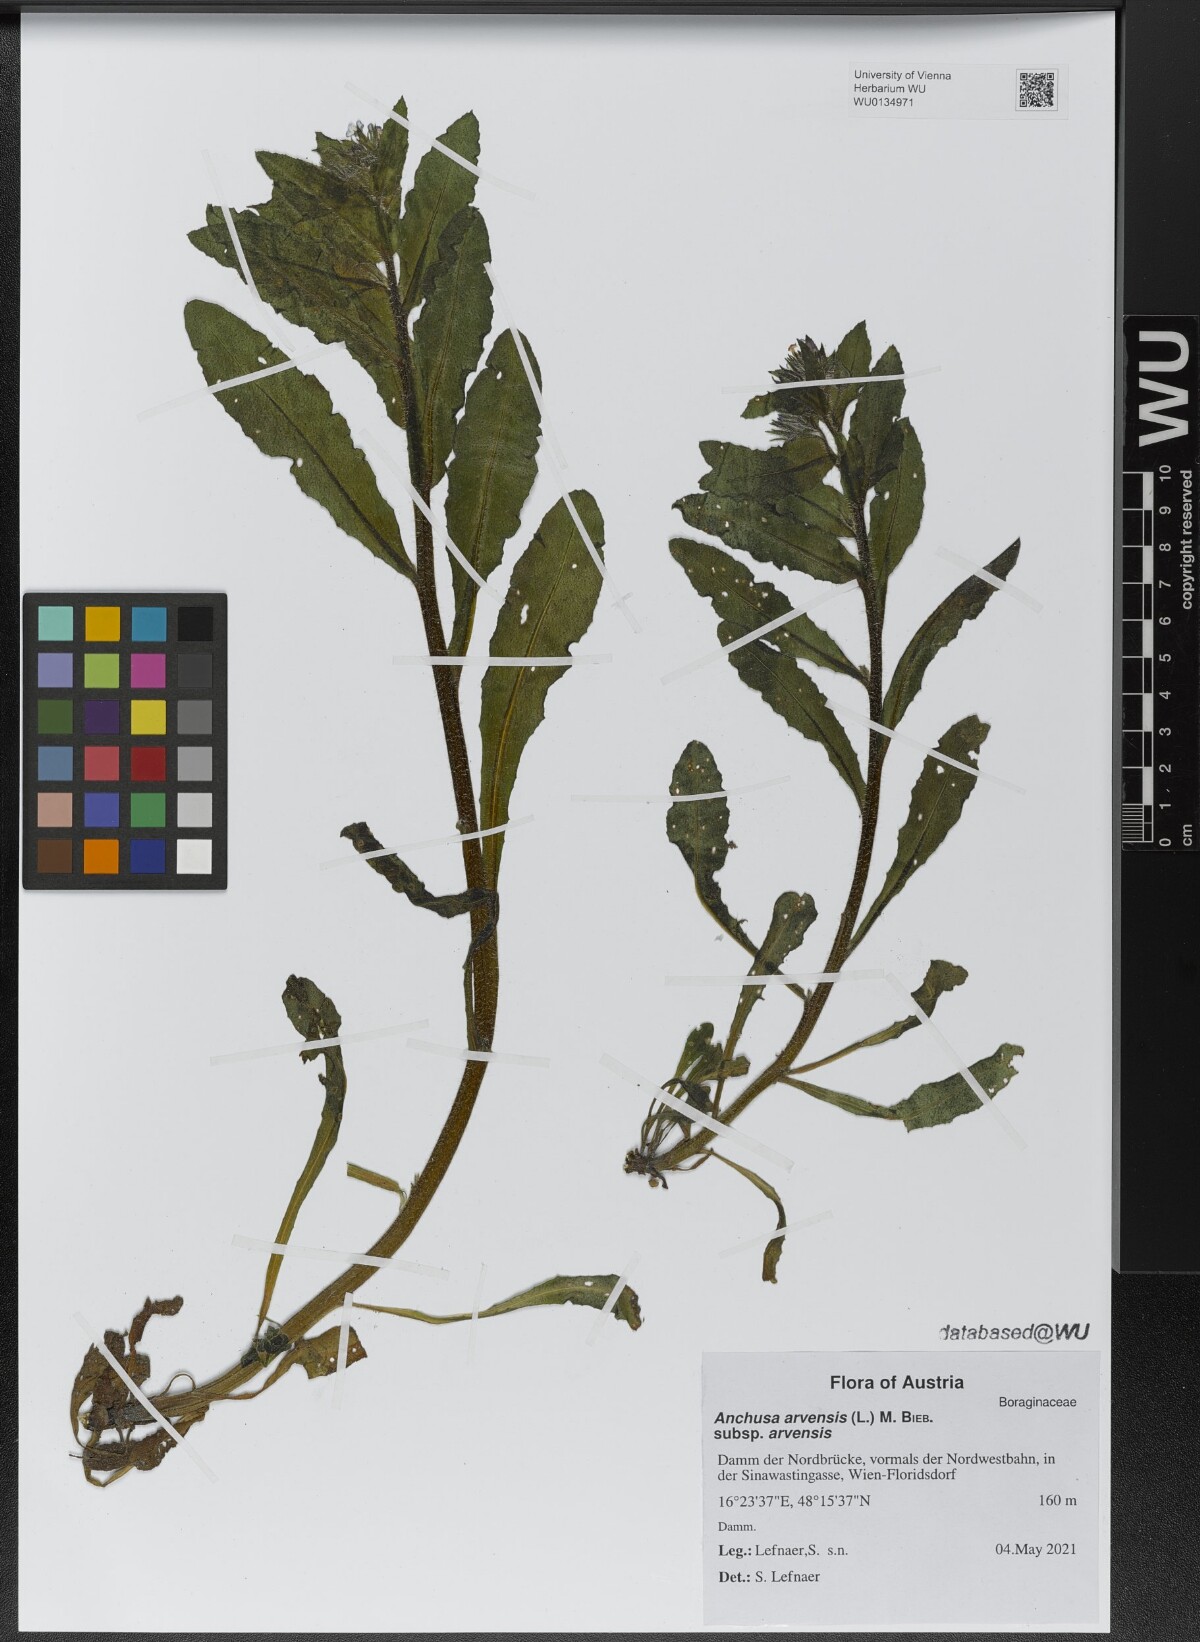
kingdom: Plantae
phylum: Tracheophyta
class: Magnoliopsida
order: Boraginales
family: Boraginaceae
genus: Lycopsis
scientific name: Lycopsis arvensis
